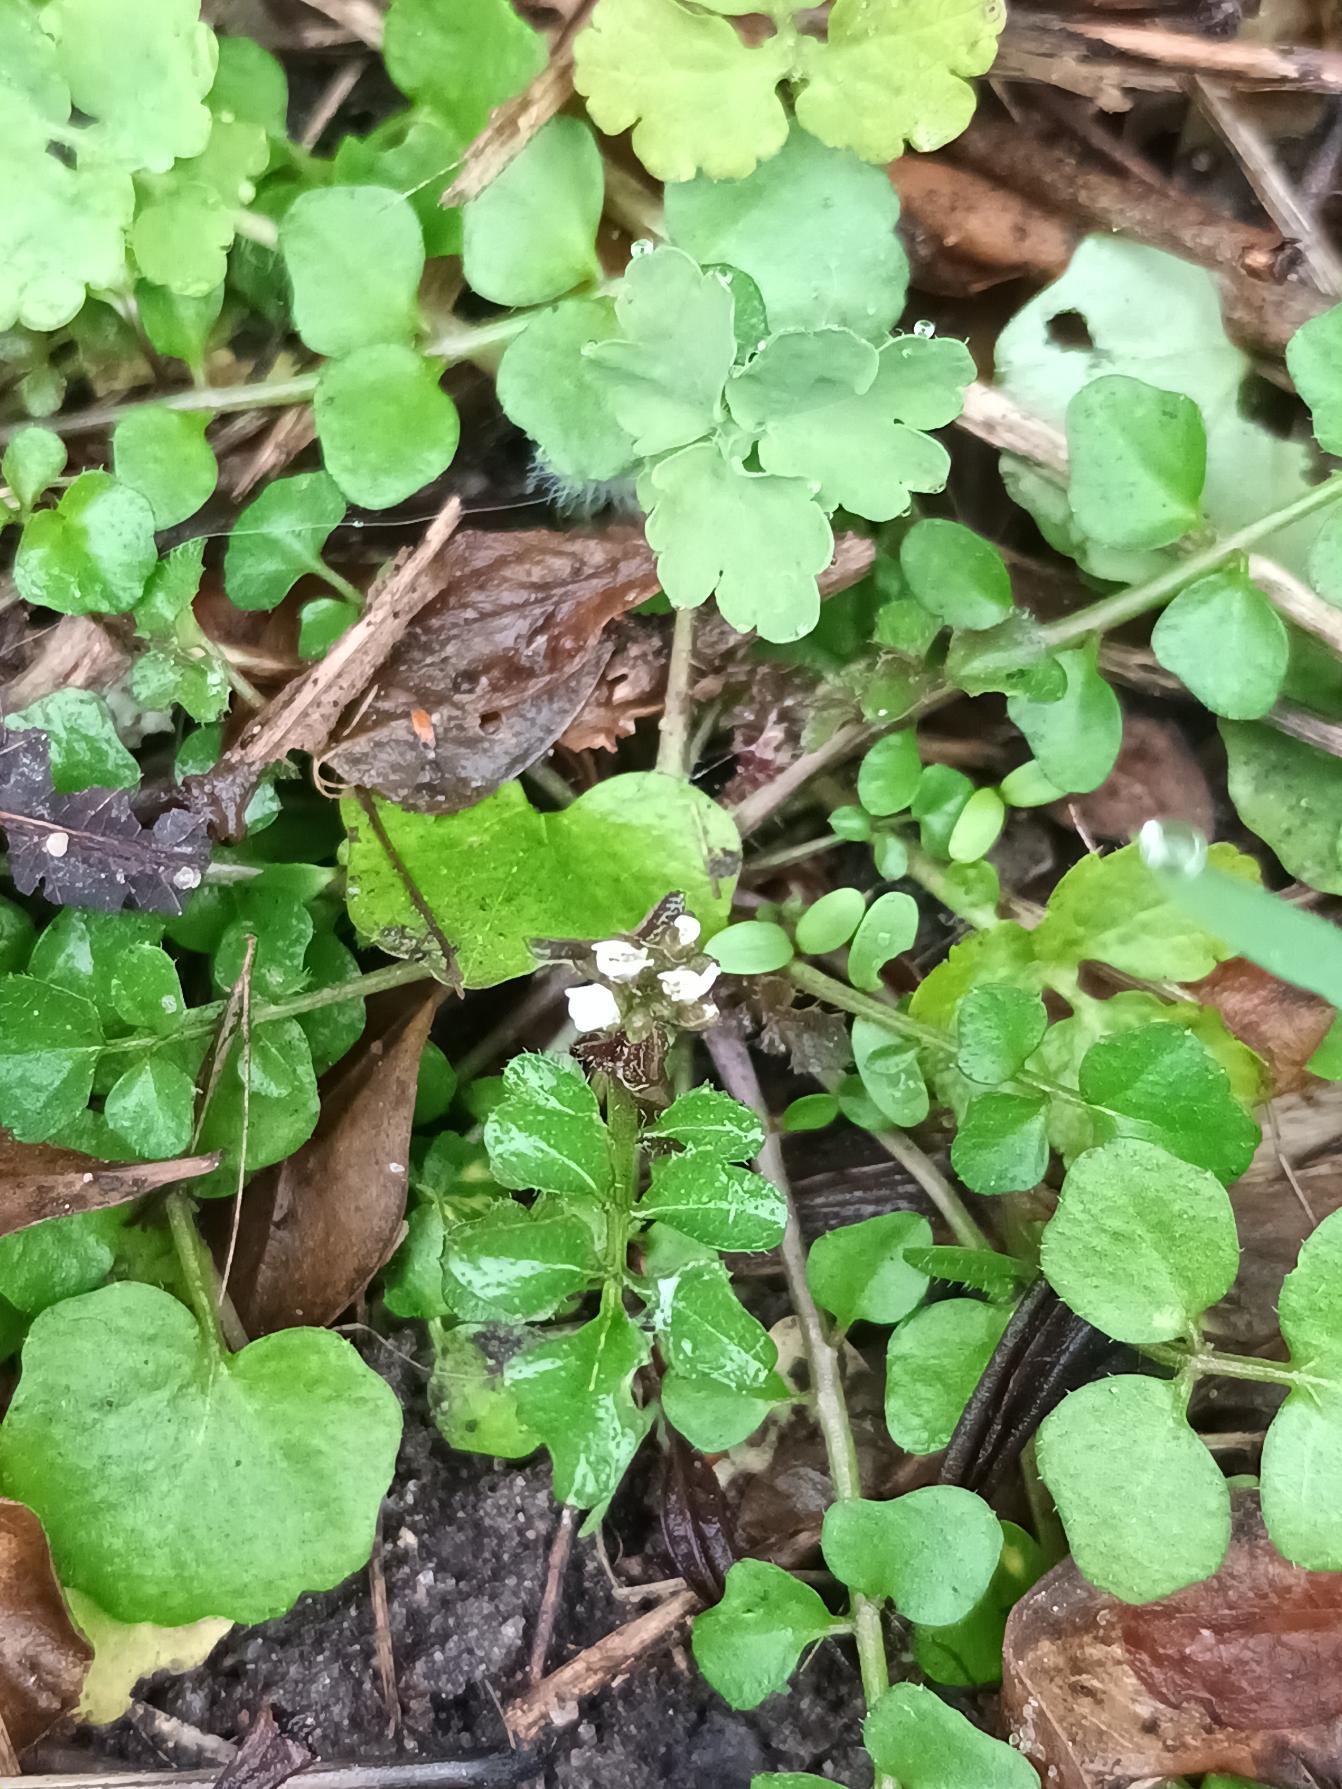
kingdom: Plantae
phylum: Tracheophyta
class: Magnoliopsida
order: Brassicales
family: Brassicaceae
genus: Cardamine
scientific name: Cardamine hirsuta
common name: Roset-springklap
